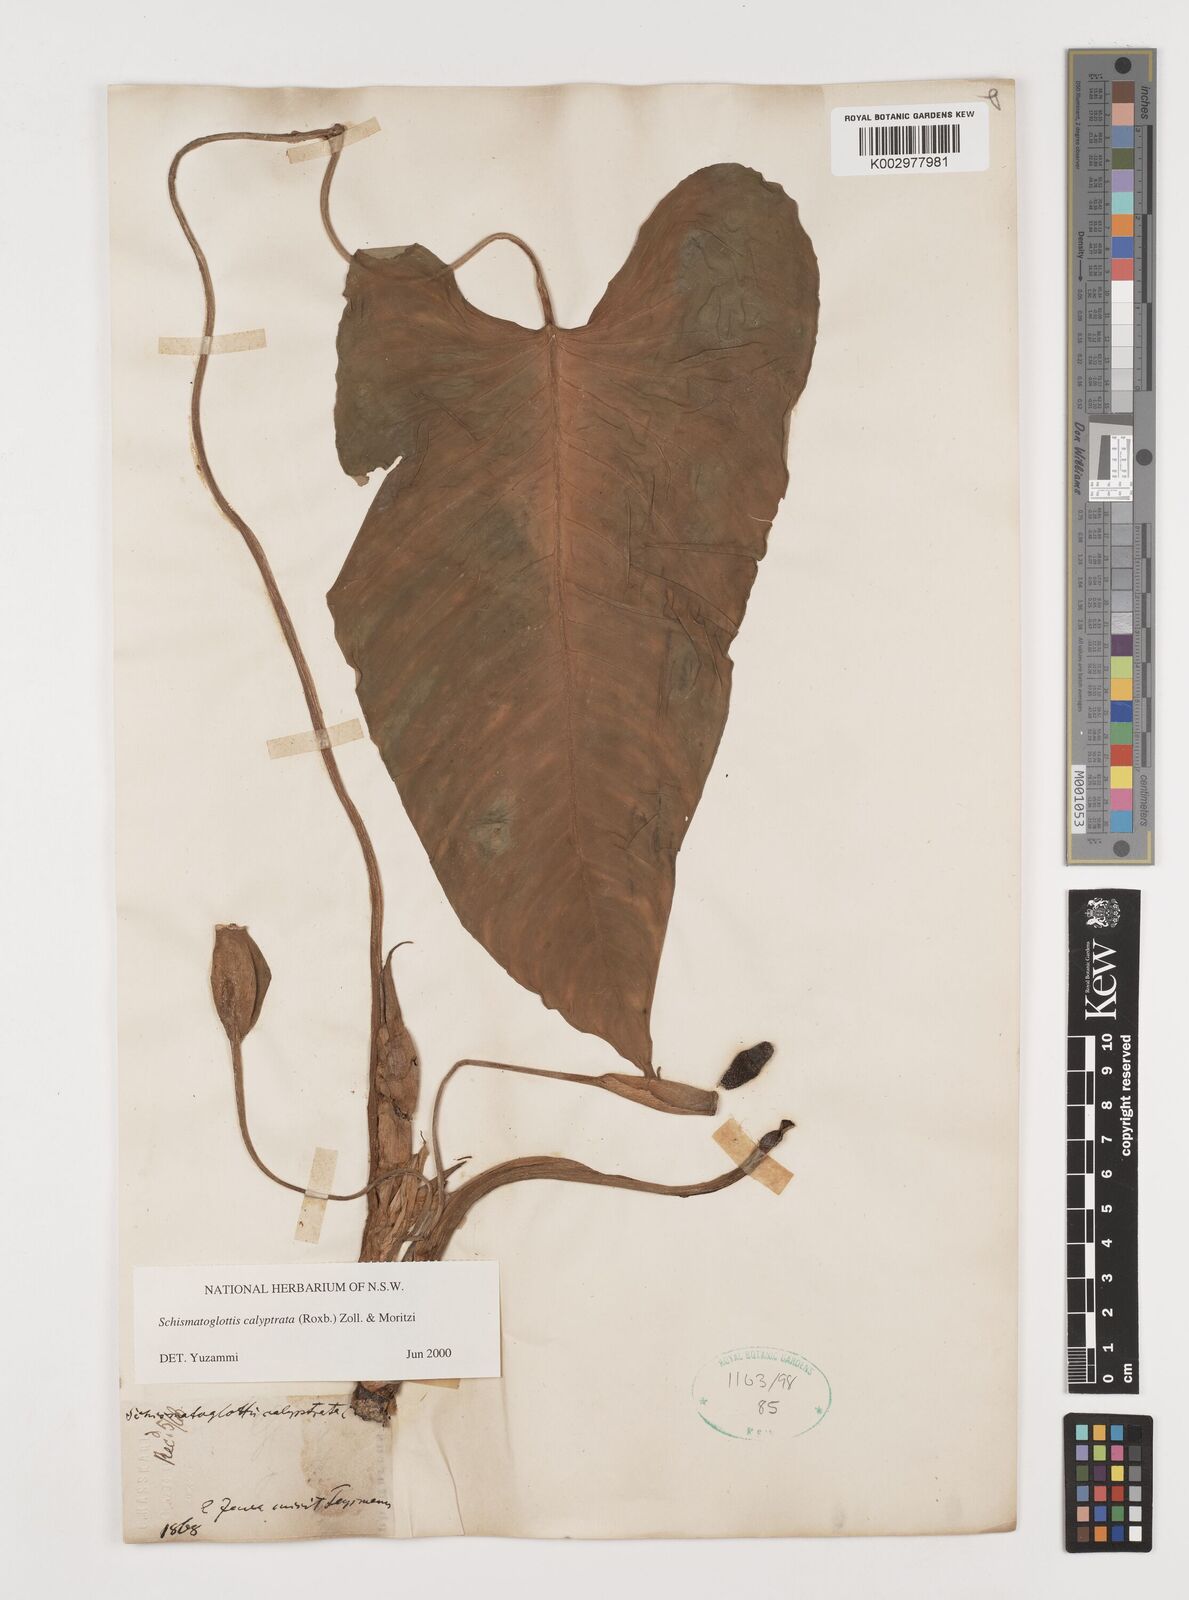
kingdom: Plantae
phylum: Tracheophyta
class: Liliopsida
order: Alismatales
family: Araceae
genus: Schismatoglottis
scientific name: Schismatoglottis calyptrata
